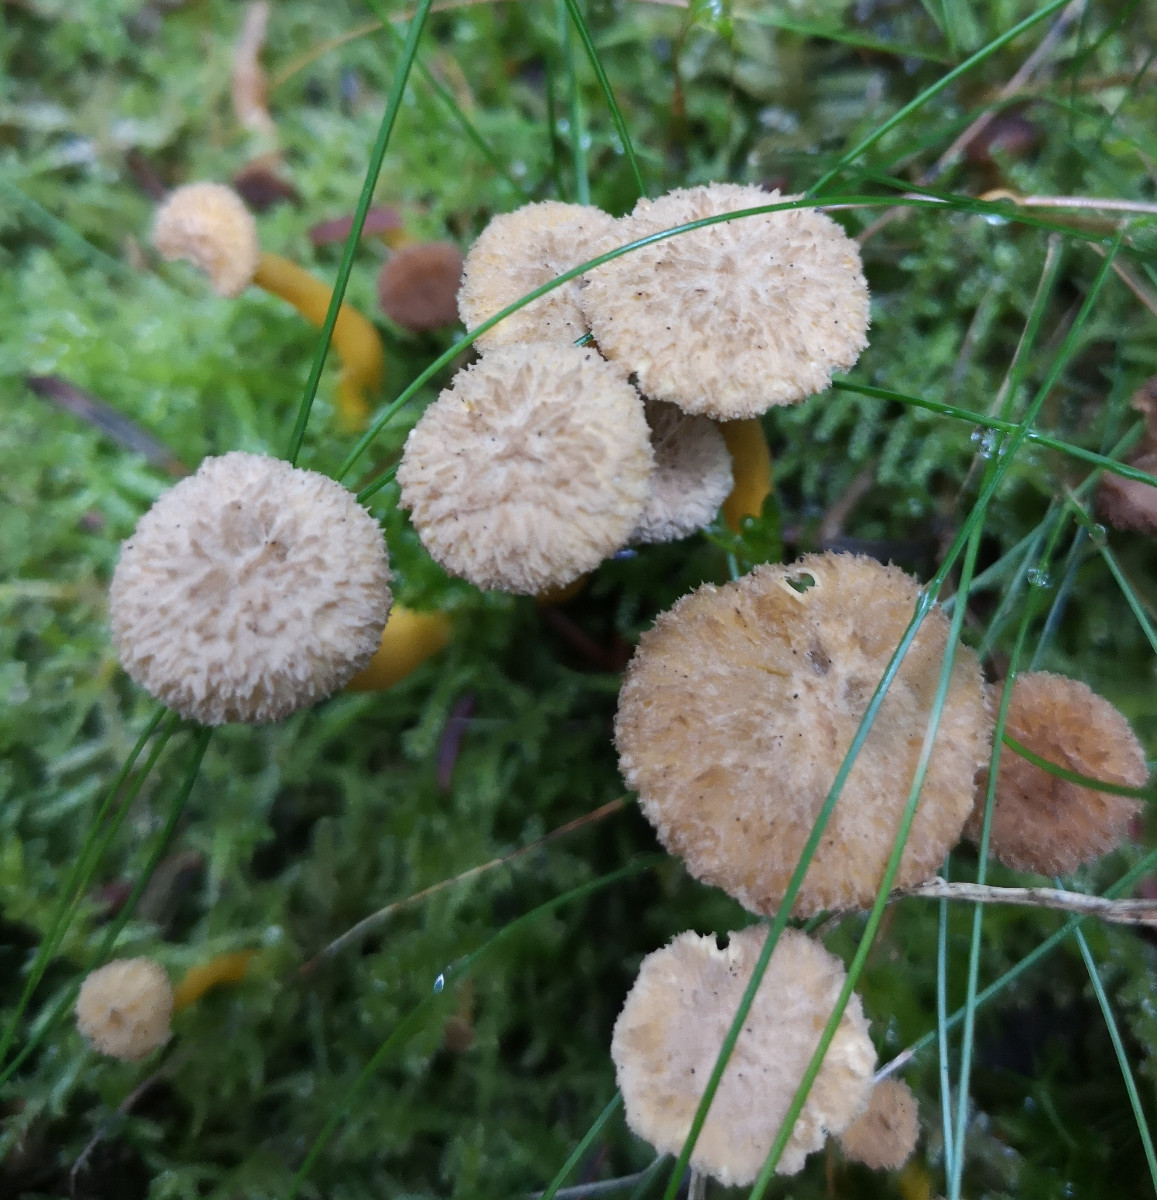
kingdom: Fungi
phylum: Basidiomycota
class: Agaricomycetes
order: Cantharellales
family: Hydnaceae
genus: Craterellus
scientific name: Craterellus tubaeformis
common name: tragt-kantarel
